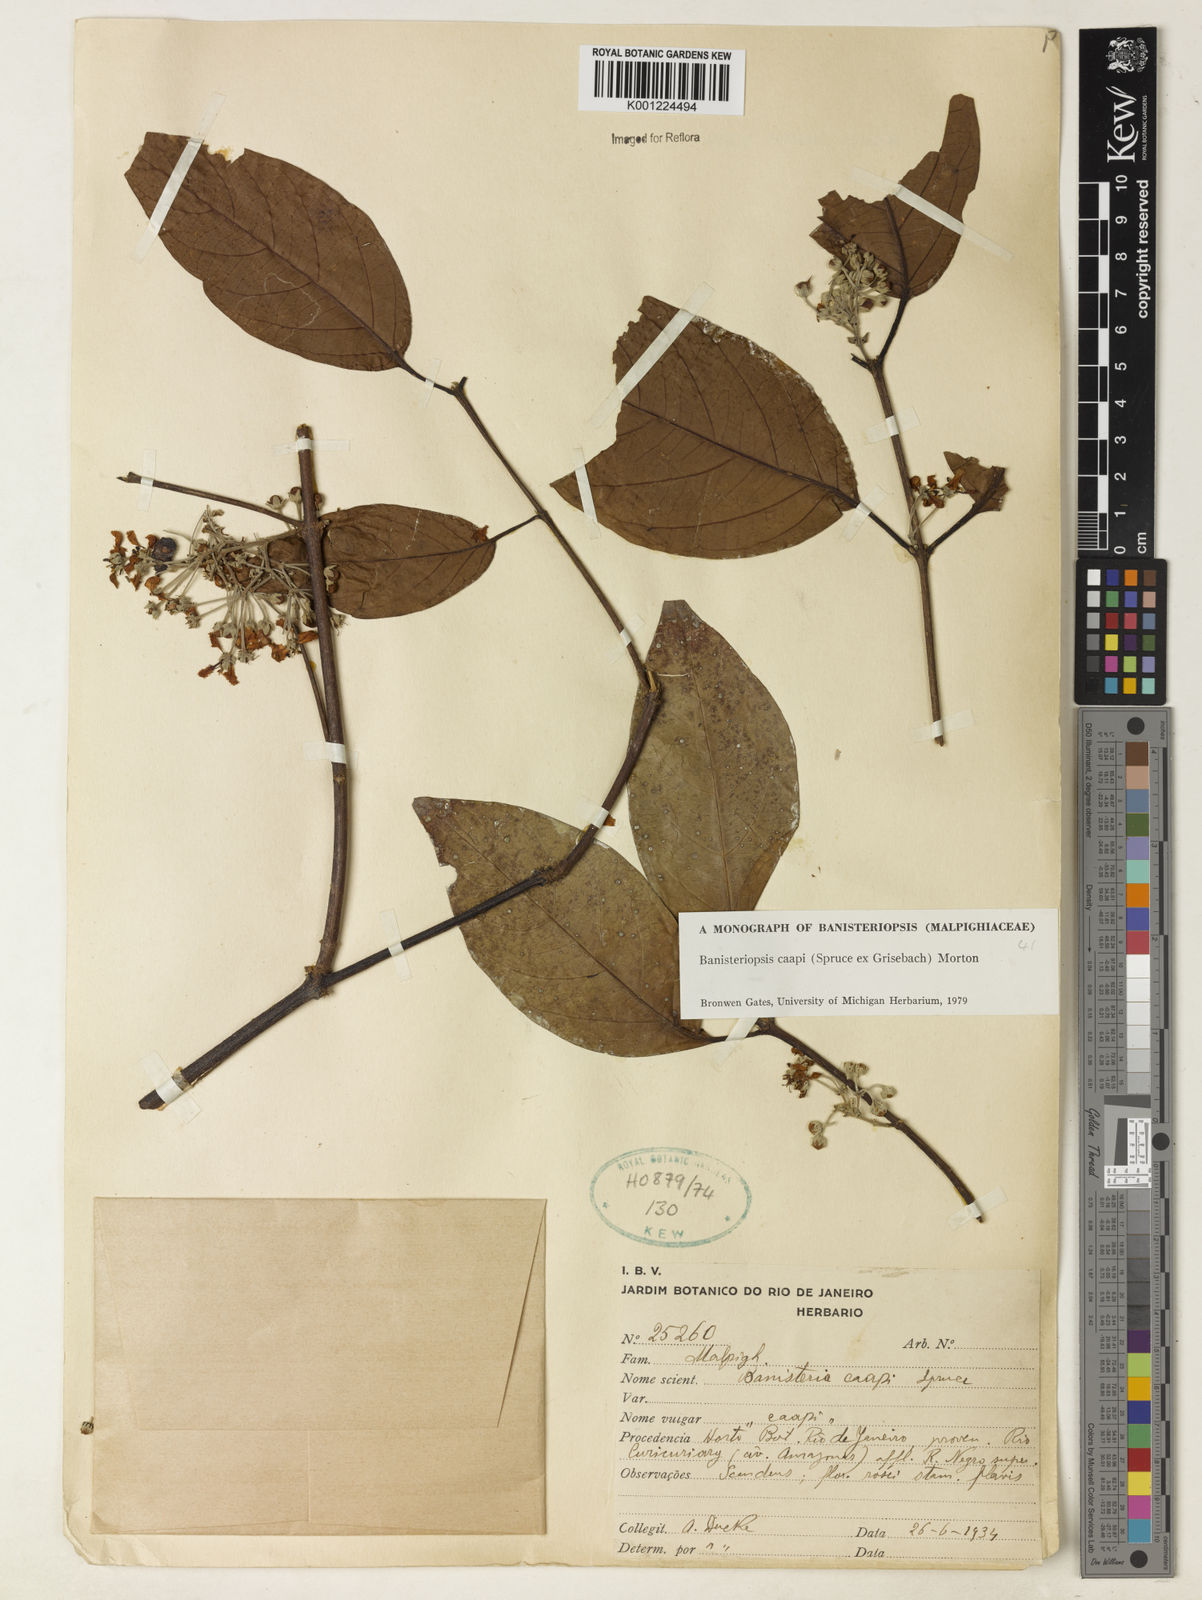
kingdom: Plantae
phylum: Tracheophyta
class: Magnoliopsida
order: Malpighiales
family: Malpighiaceae
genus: Banisteriopsis
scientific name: Banisteriopsis caapi
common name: Soulvine
